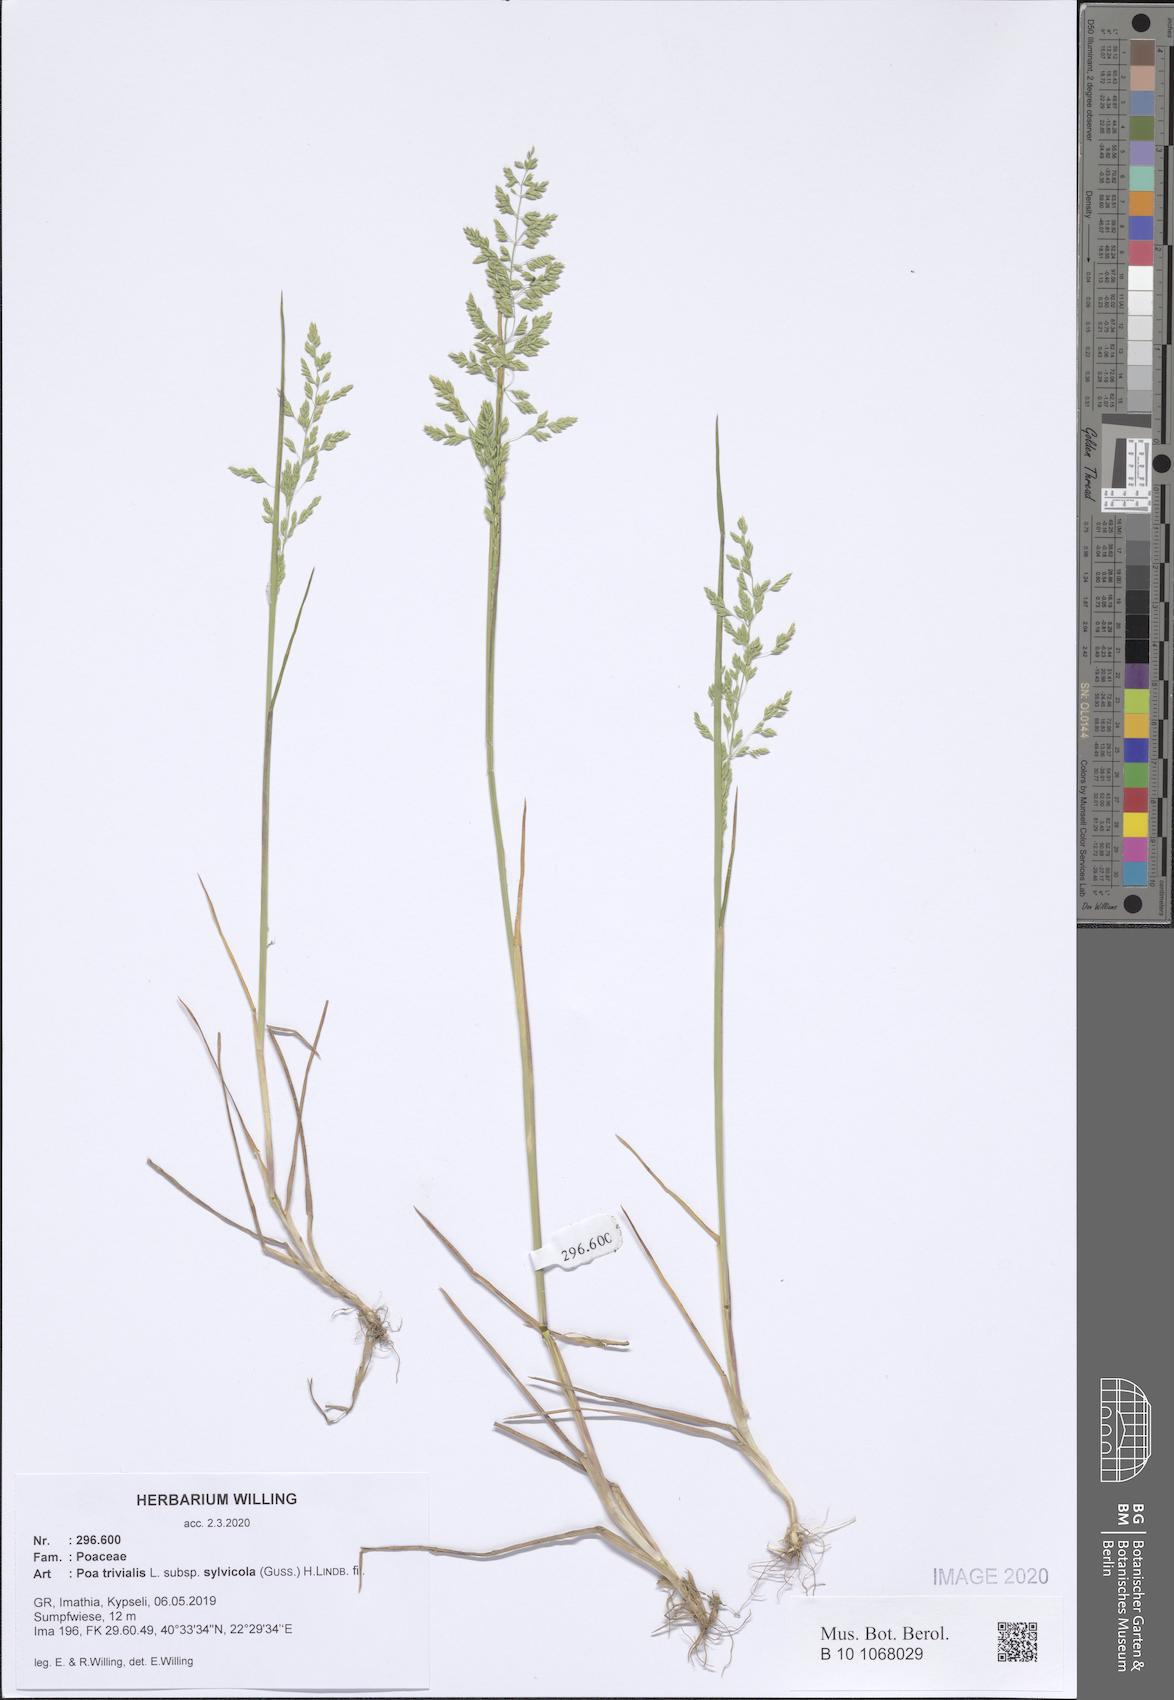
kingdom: Plantae
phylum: Tracheophyta
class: Liliopsida
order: Poales
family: Poaceae
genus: Poa
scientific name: Poa trivialis
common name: Rough bluegrass
